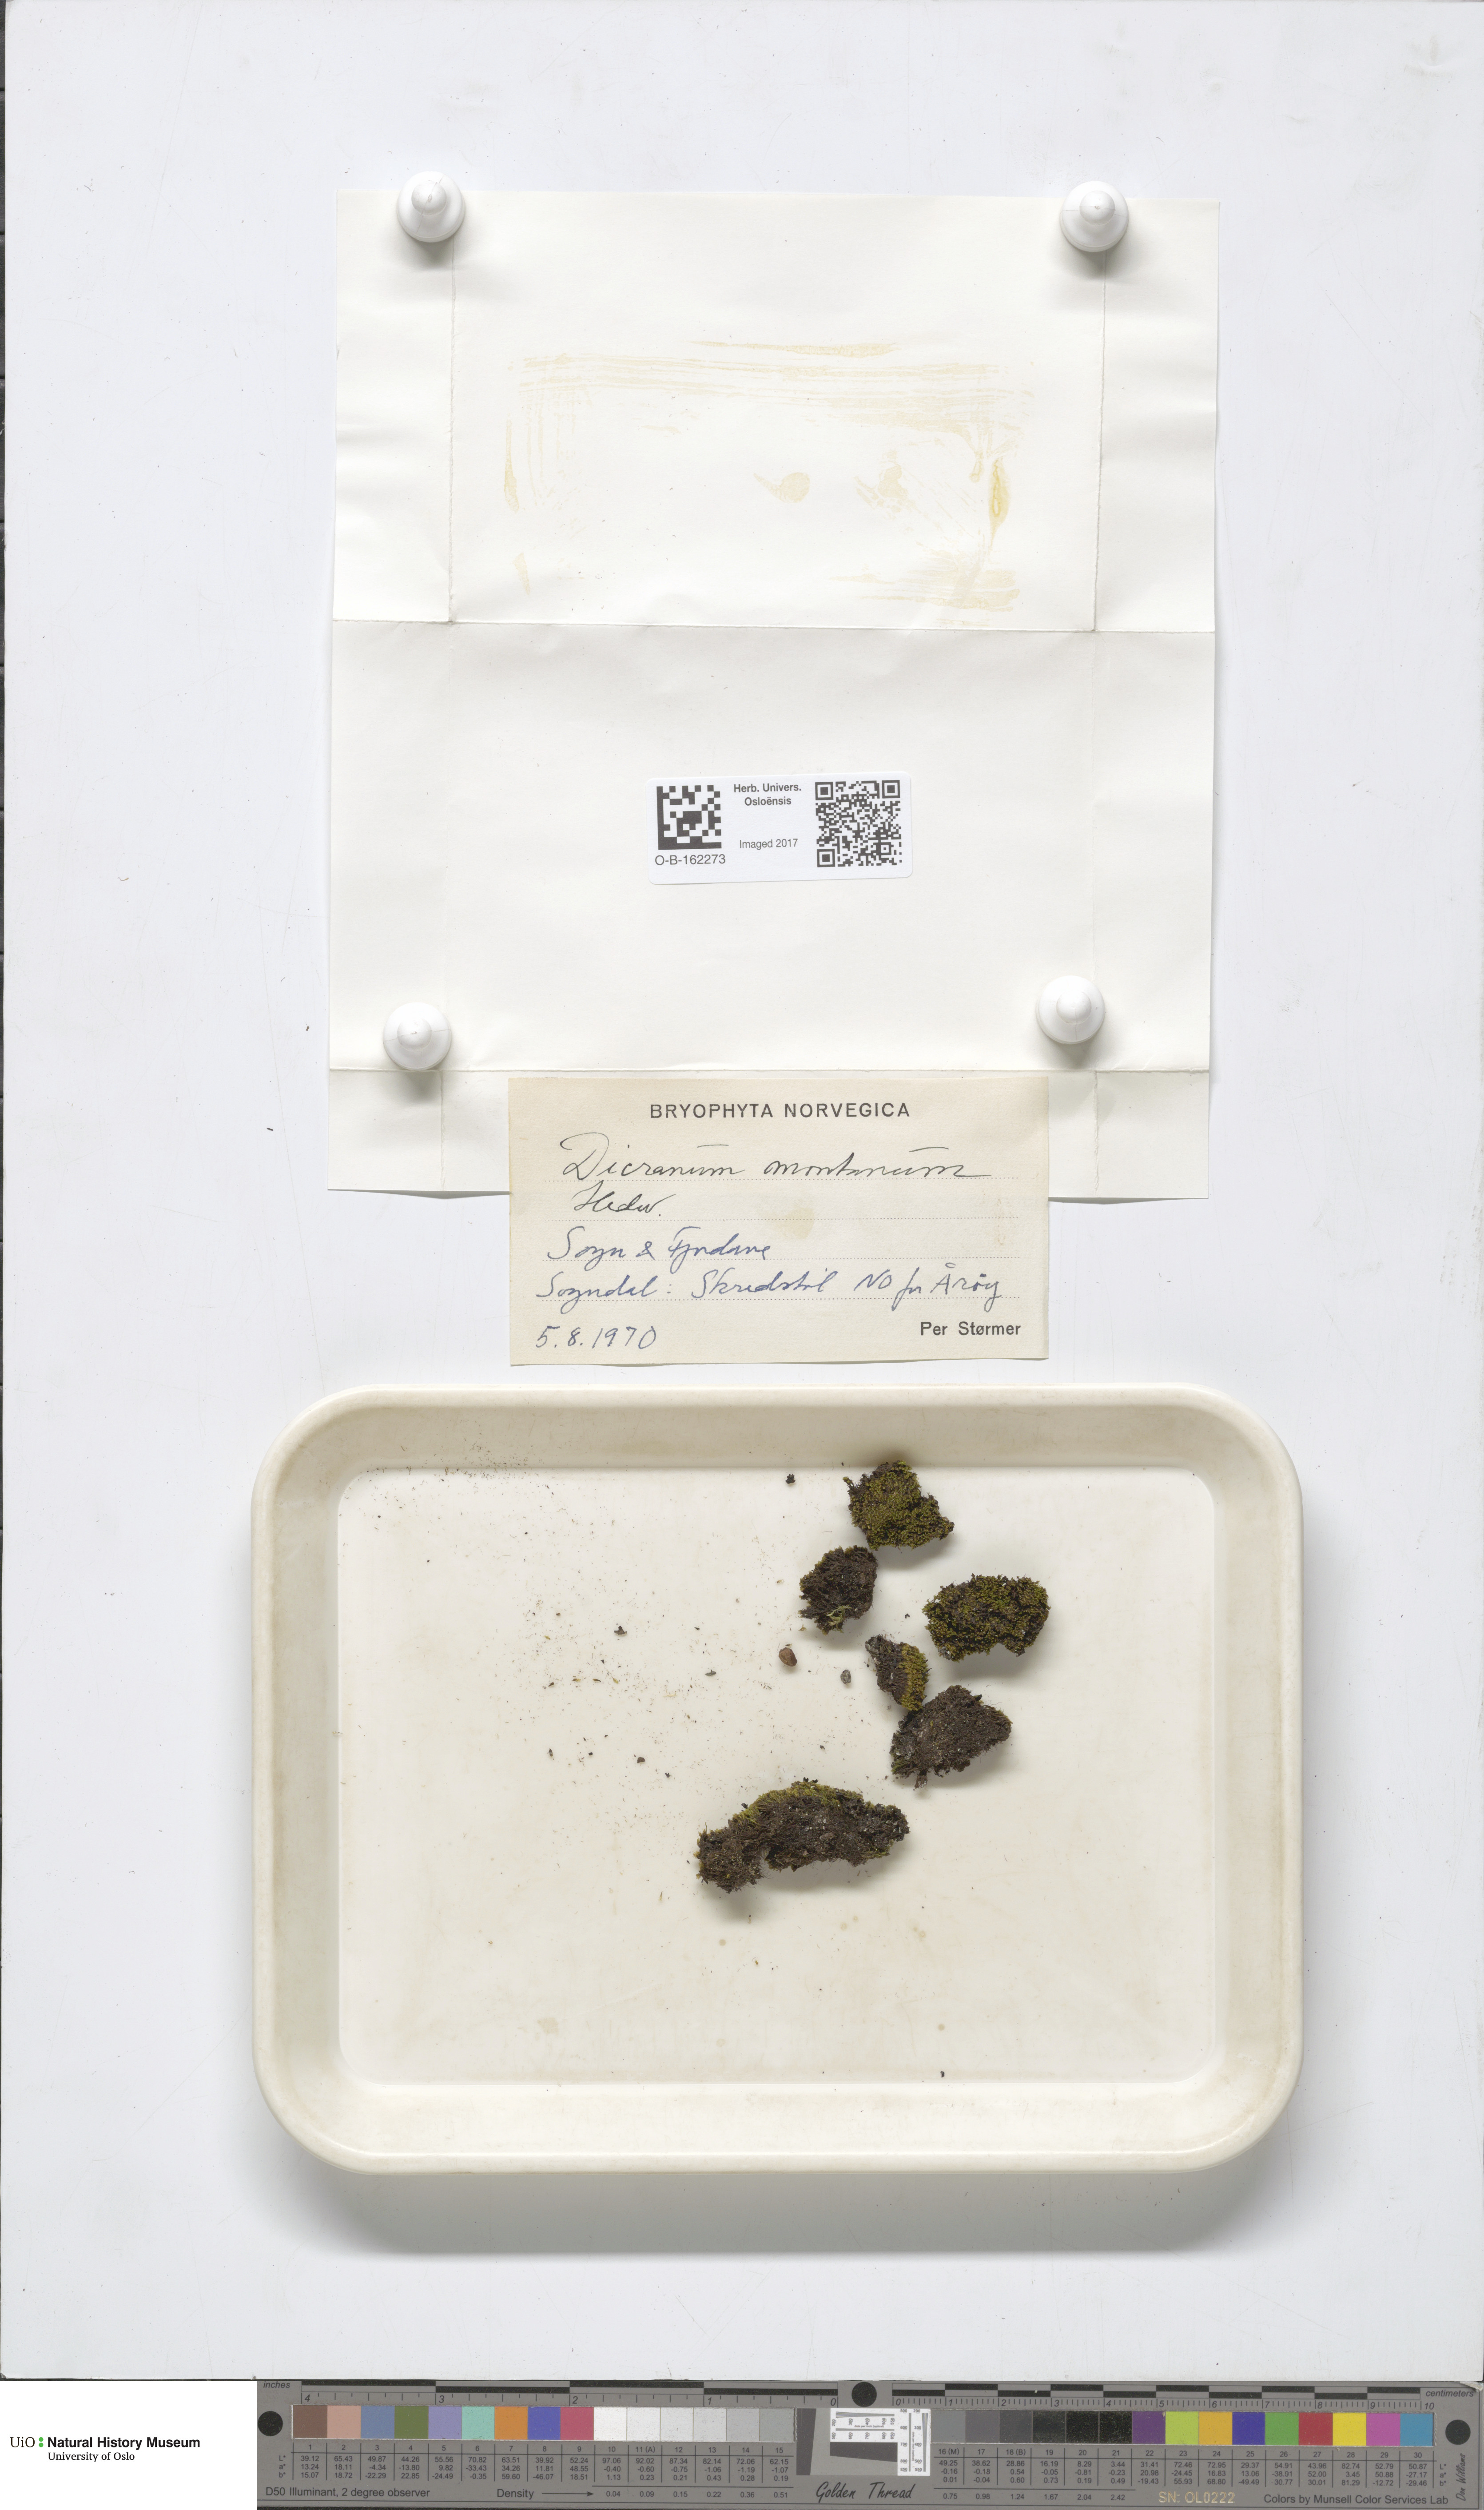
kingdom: Plantae
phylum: Bryophyta
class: Bryopsida
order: Dicranales
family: Dicranaceae
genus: Orthodicranum
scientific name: Orthodicranum montanum
